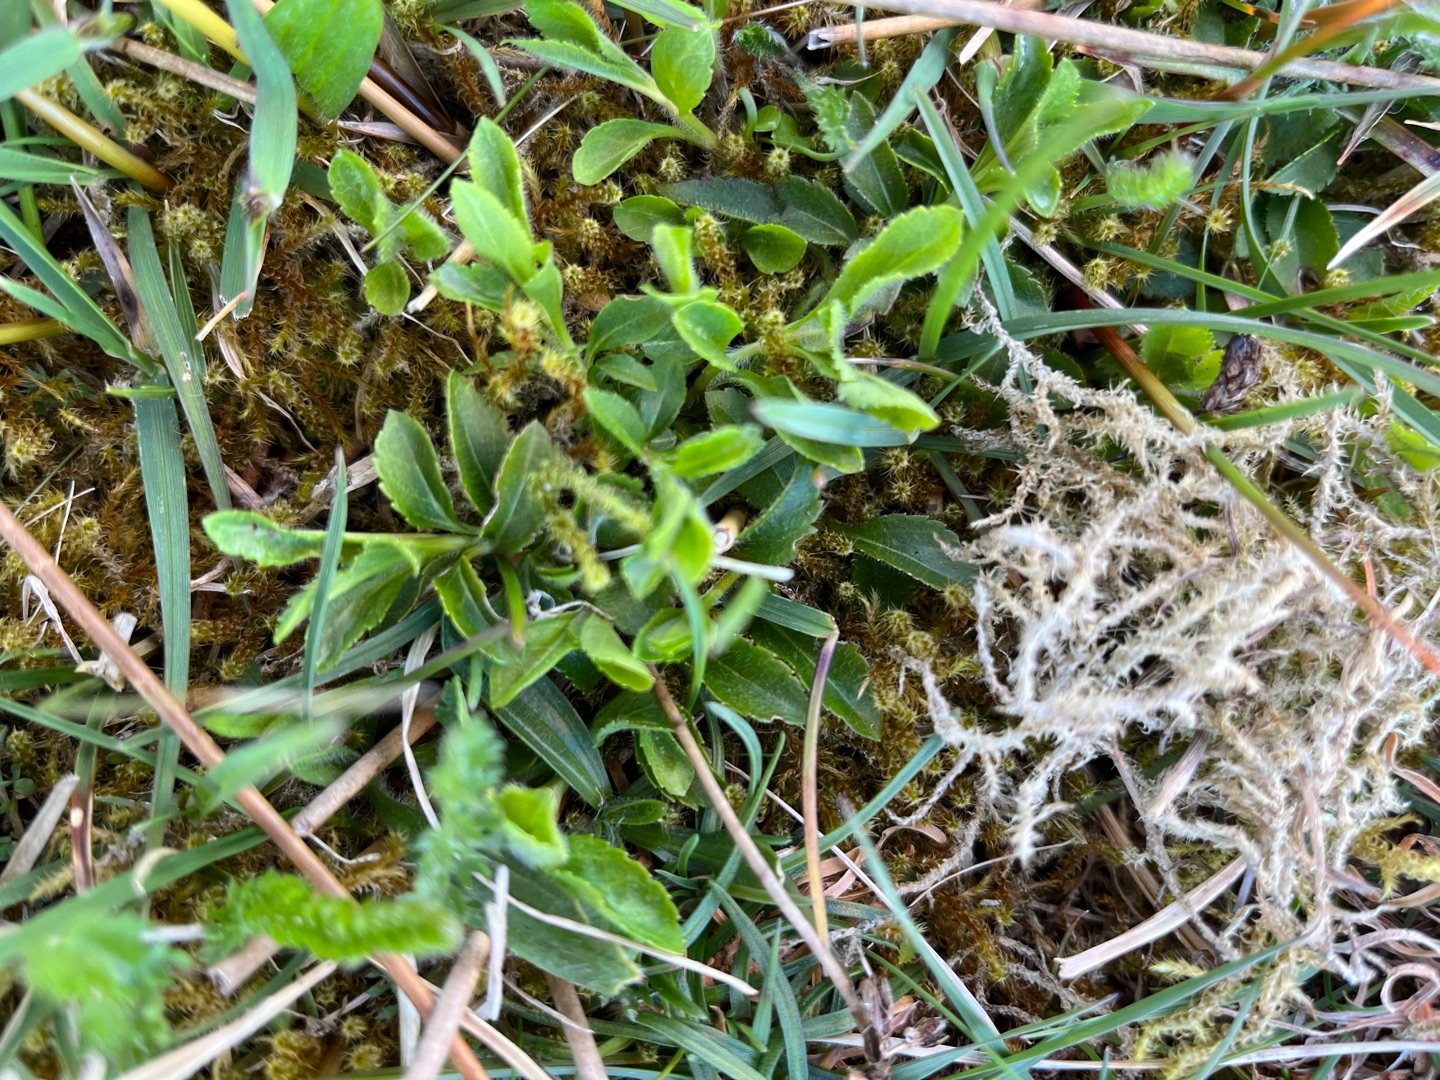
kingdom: Plantae
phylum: Tracheophyta
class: Magnoliopsida
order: Lamiales
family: Plantaginaceae
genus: Veronica
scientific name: Veronica officinalis
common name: Læge-ærenpris
